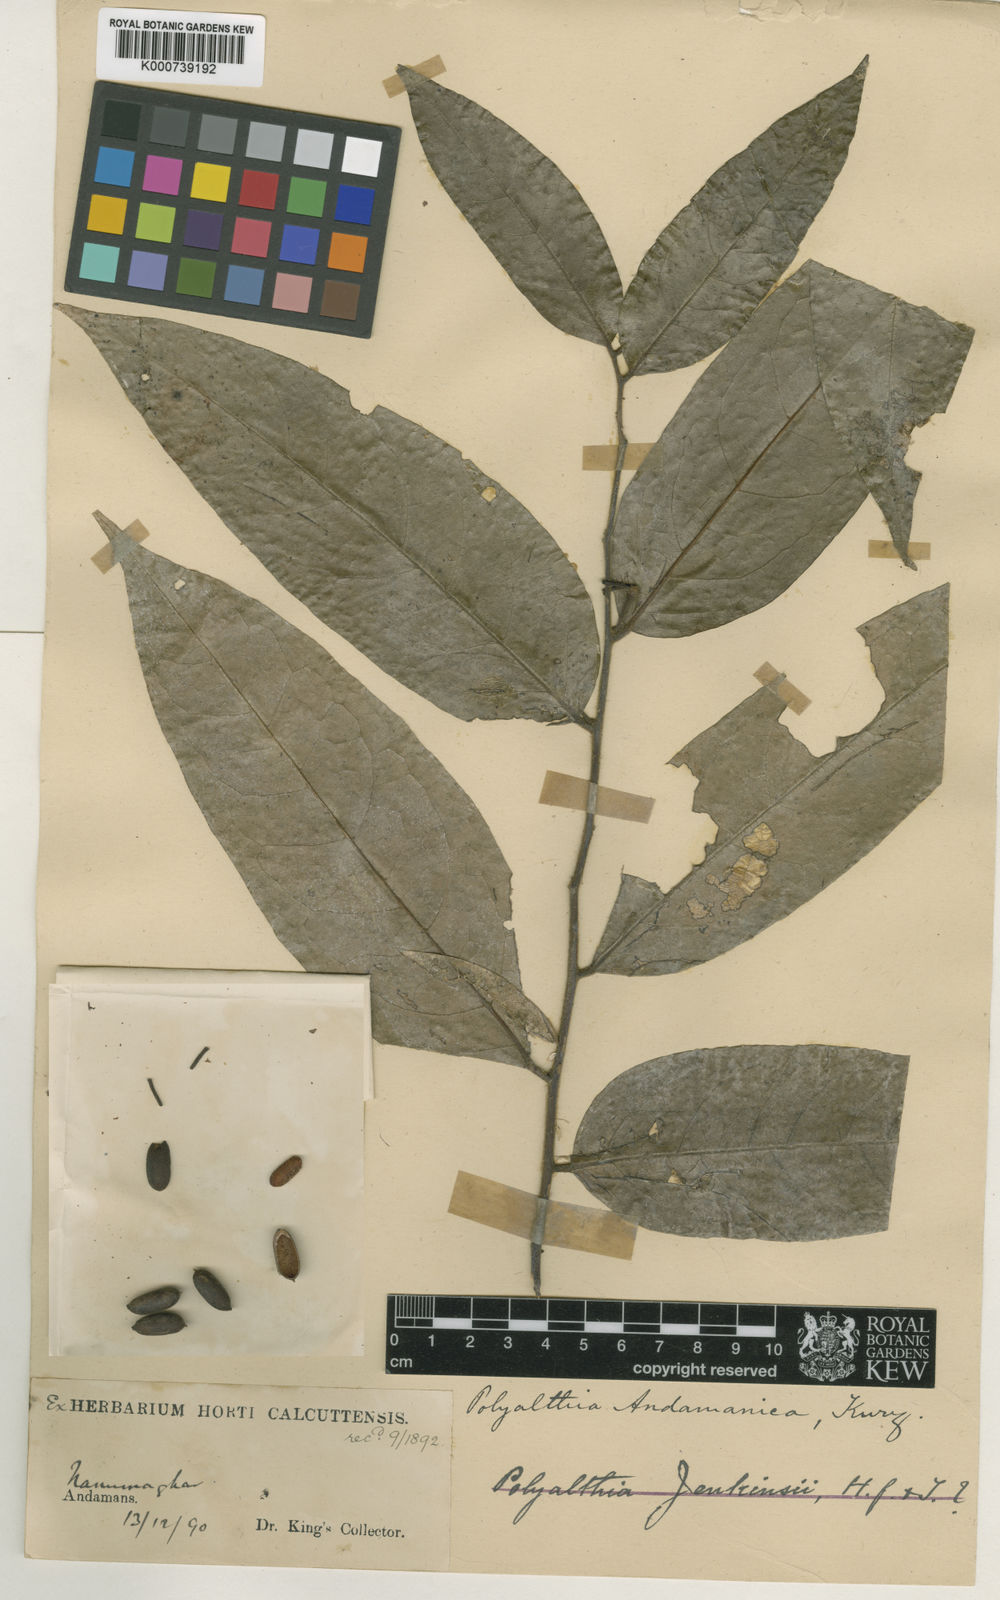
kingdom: Plantae
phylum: Tracheophyta
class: Magnoliopsida
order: Magnoliales
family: Annonaceae
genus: Polyalthia
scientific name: Polyalthia
